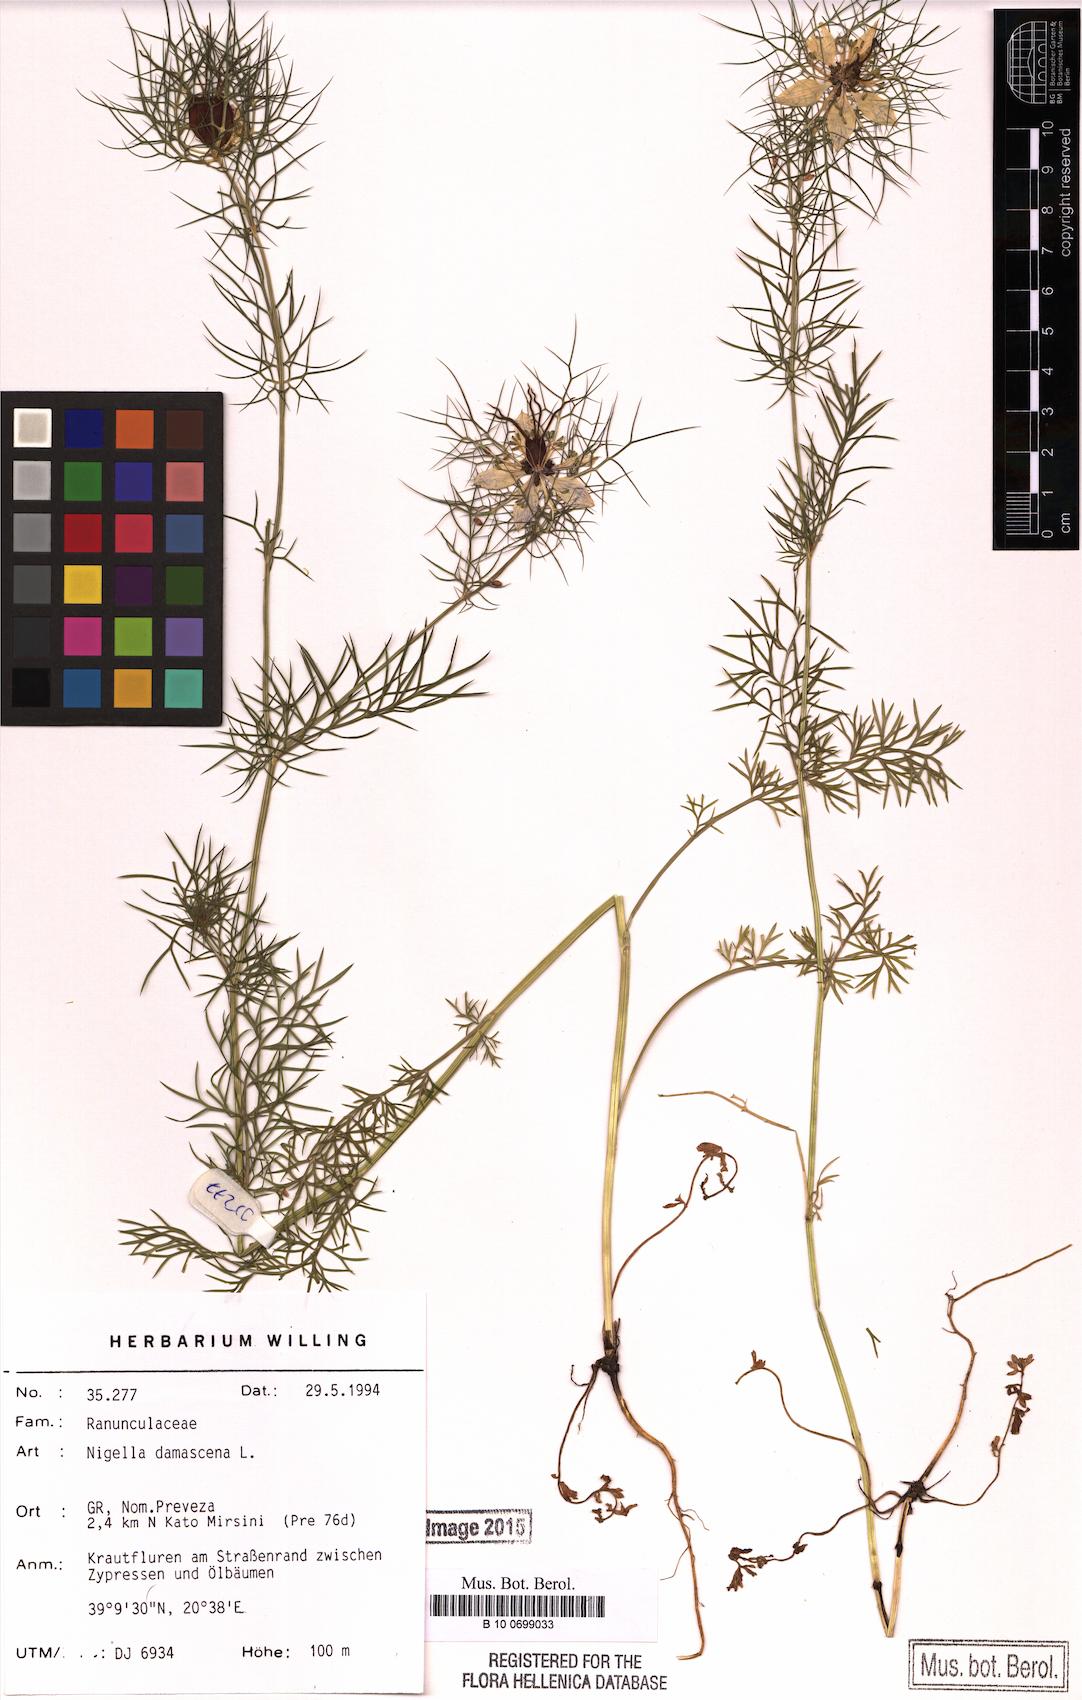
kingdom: Plantae
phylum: Tracheophyta
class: Magnoliopsida
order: Ranunculales
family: Ranunculaceae
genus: Nigella
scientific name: Nigella damascena
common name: Love-in-a-mist
